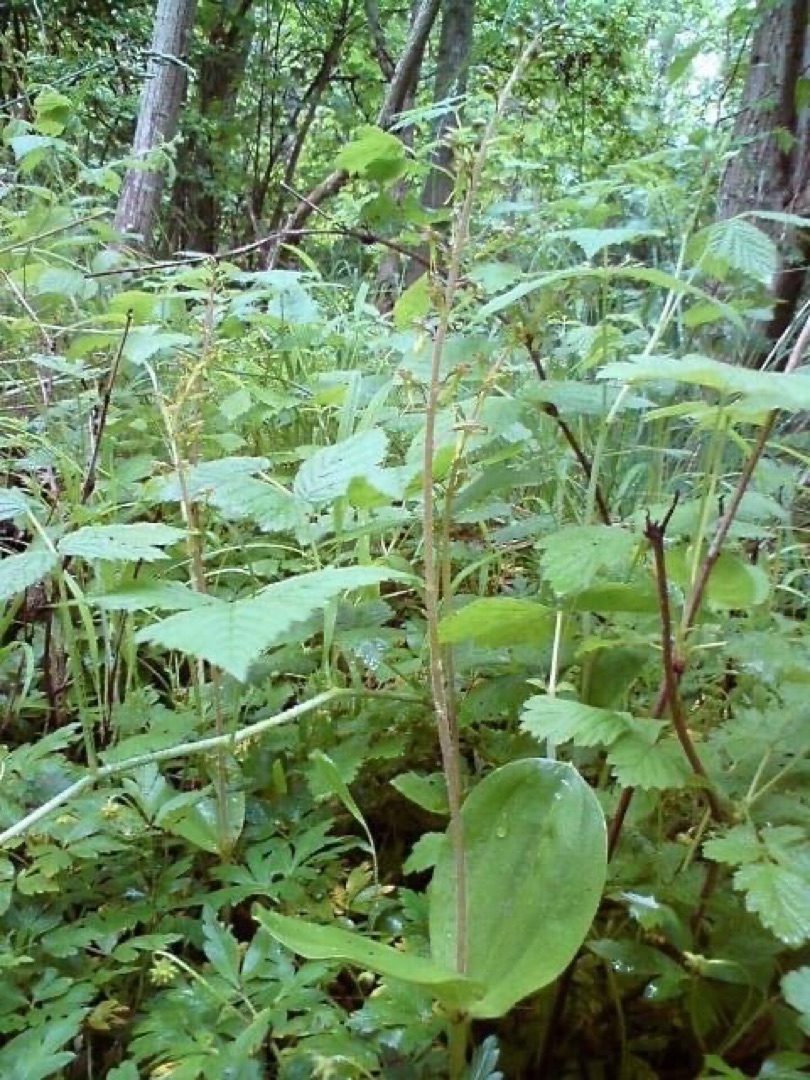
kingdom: Plantae
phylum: Tracheophyta
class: Liliopsida
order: Asparagales
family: Orchidaceae
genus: Neottia
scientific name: Neottia ovata
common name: Ægbladet fliglæbe
